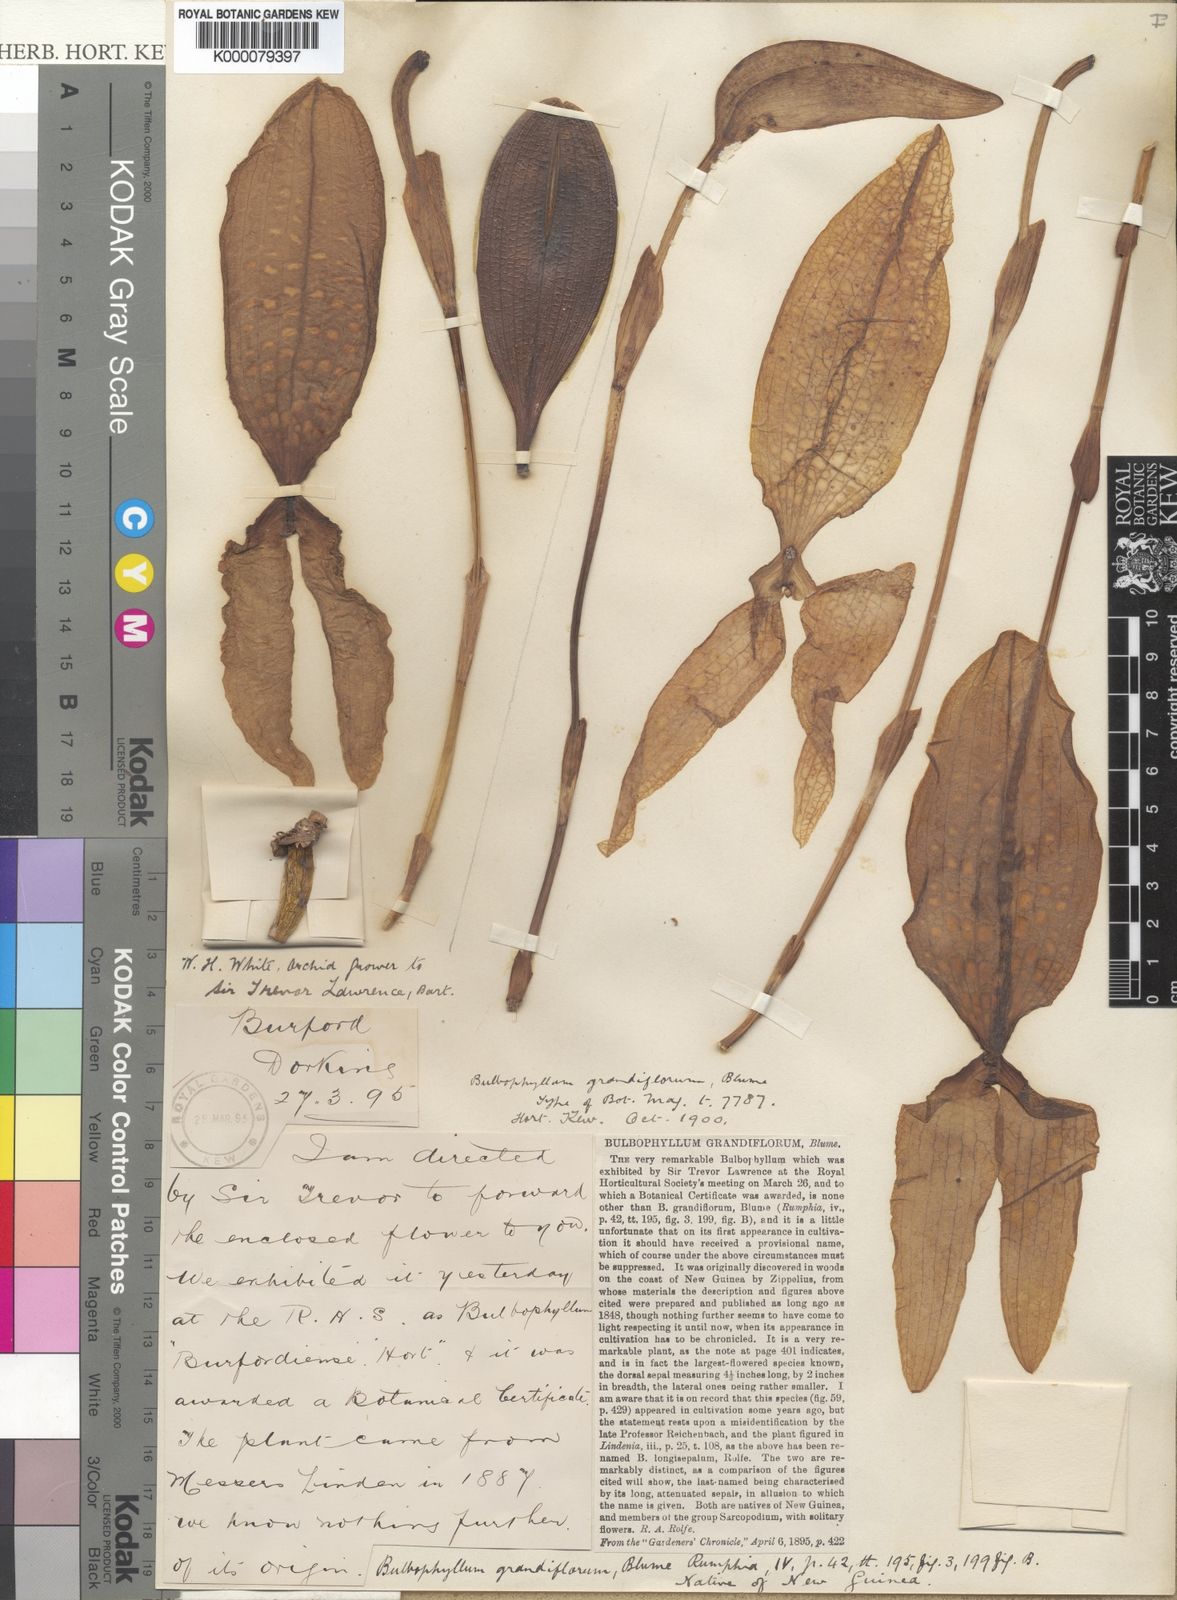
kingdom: Plantae
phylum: Tracheophyta
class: Liliopsida
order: Asparagales
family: Orchidaceae
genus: Bulbophyllum
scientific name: Bulbophyllum grandiflorum
